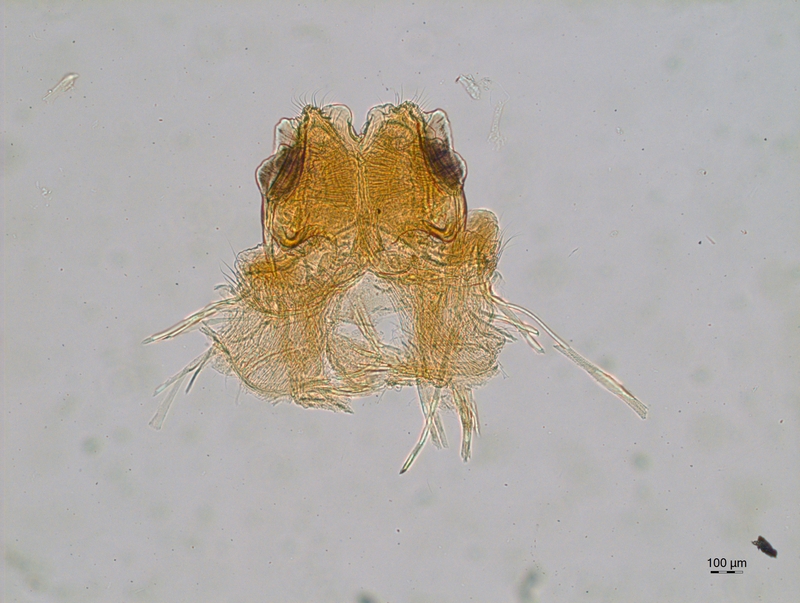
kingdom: Animalia
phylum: Arthropoda
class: Diplopoda
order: Chordeumatida
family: Attemsiidae
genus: Allorhiscosoma
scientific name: Allorhiscosoma sphinx
